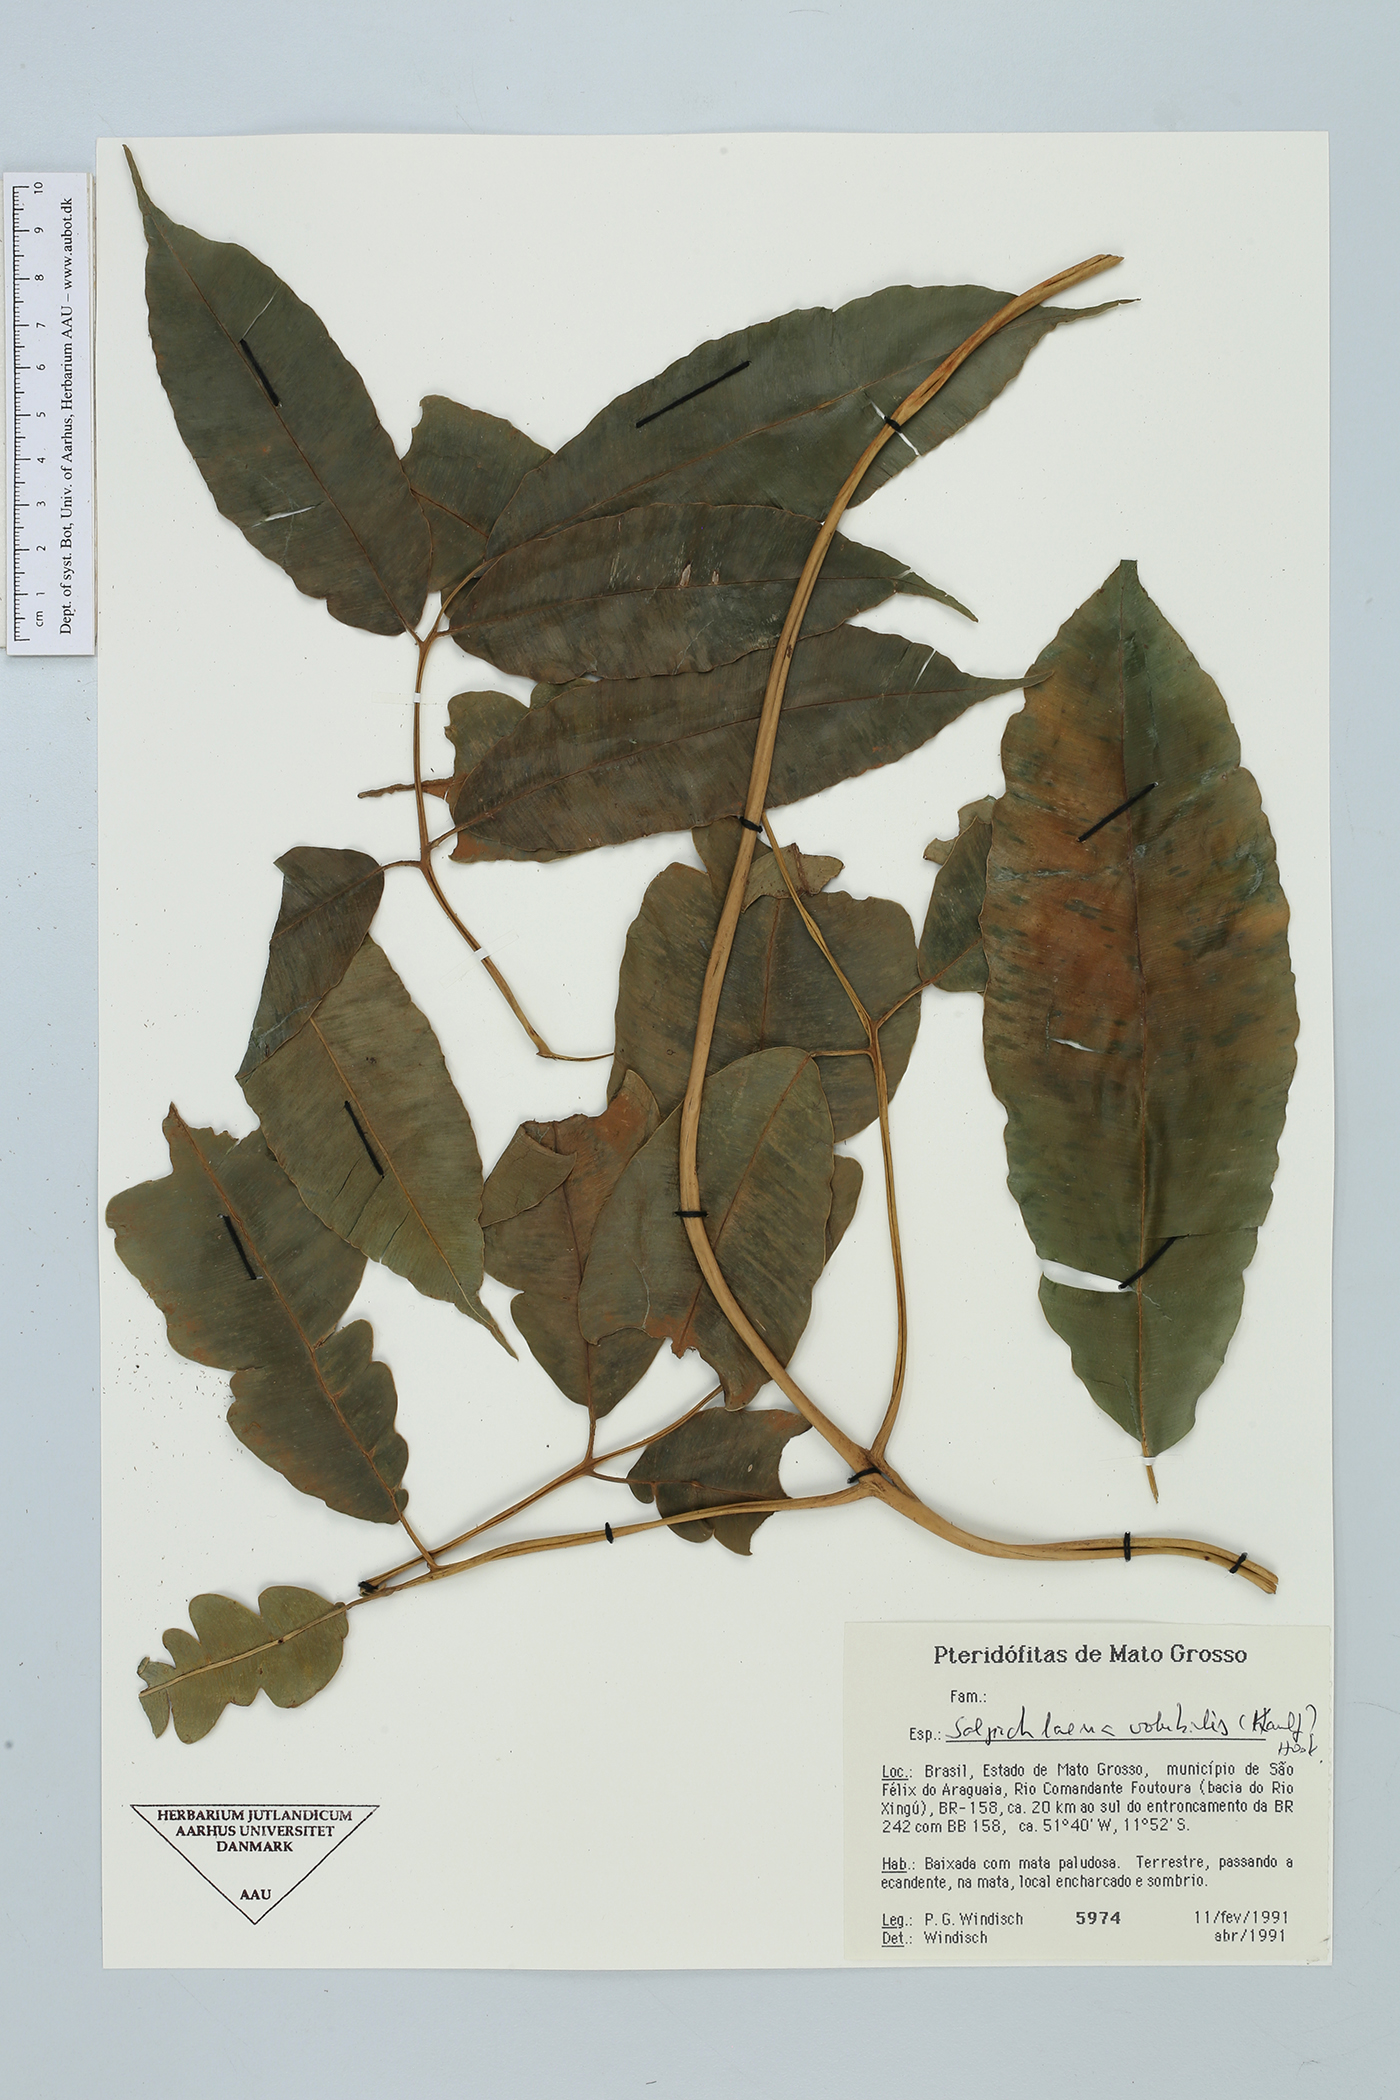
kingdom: Plantae
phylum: Tracheophyta
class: Polypodiopsida
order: Polypodiales
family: Blechnaceae
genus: Salpichlaena
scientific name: Salpichlaena volubilis
